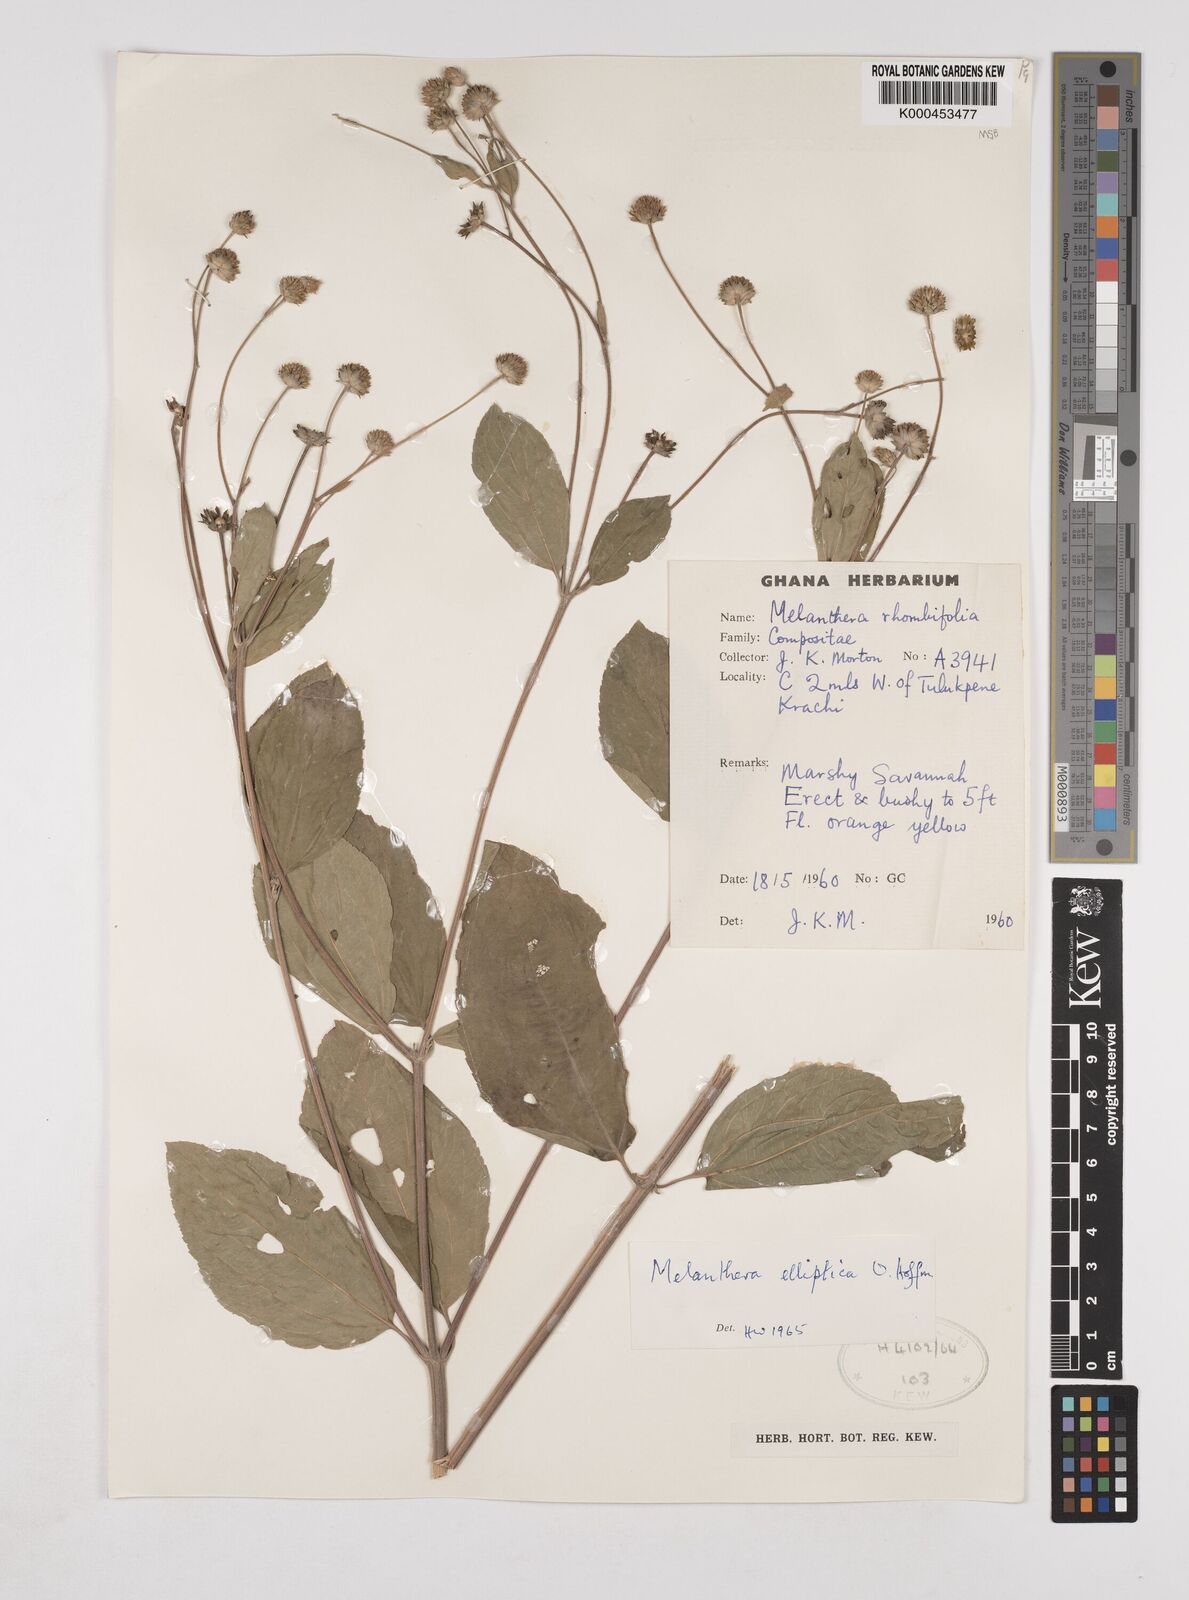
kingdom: Plantae
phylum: Tracheophyta
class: Magnoliopsida
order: Asterales
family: Asteraceae
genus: Lipotriche
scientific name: Lipotriche elliptica
